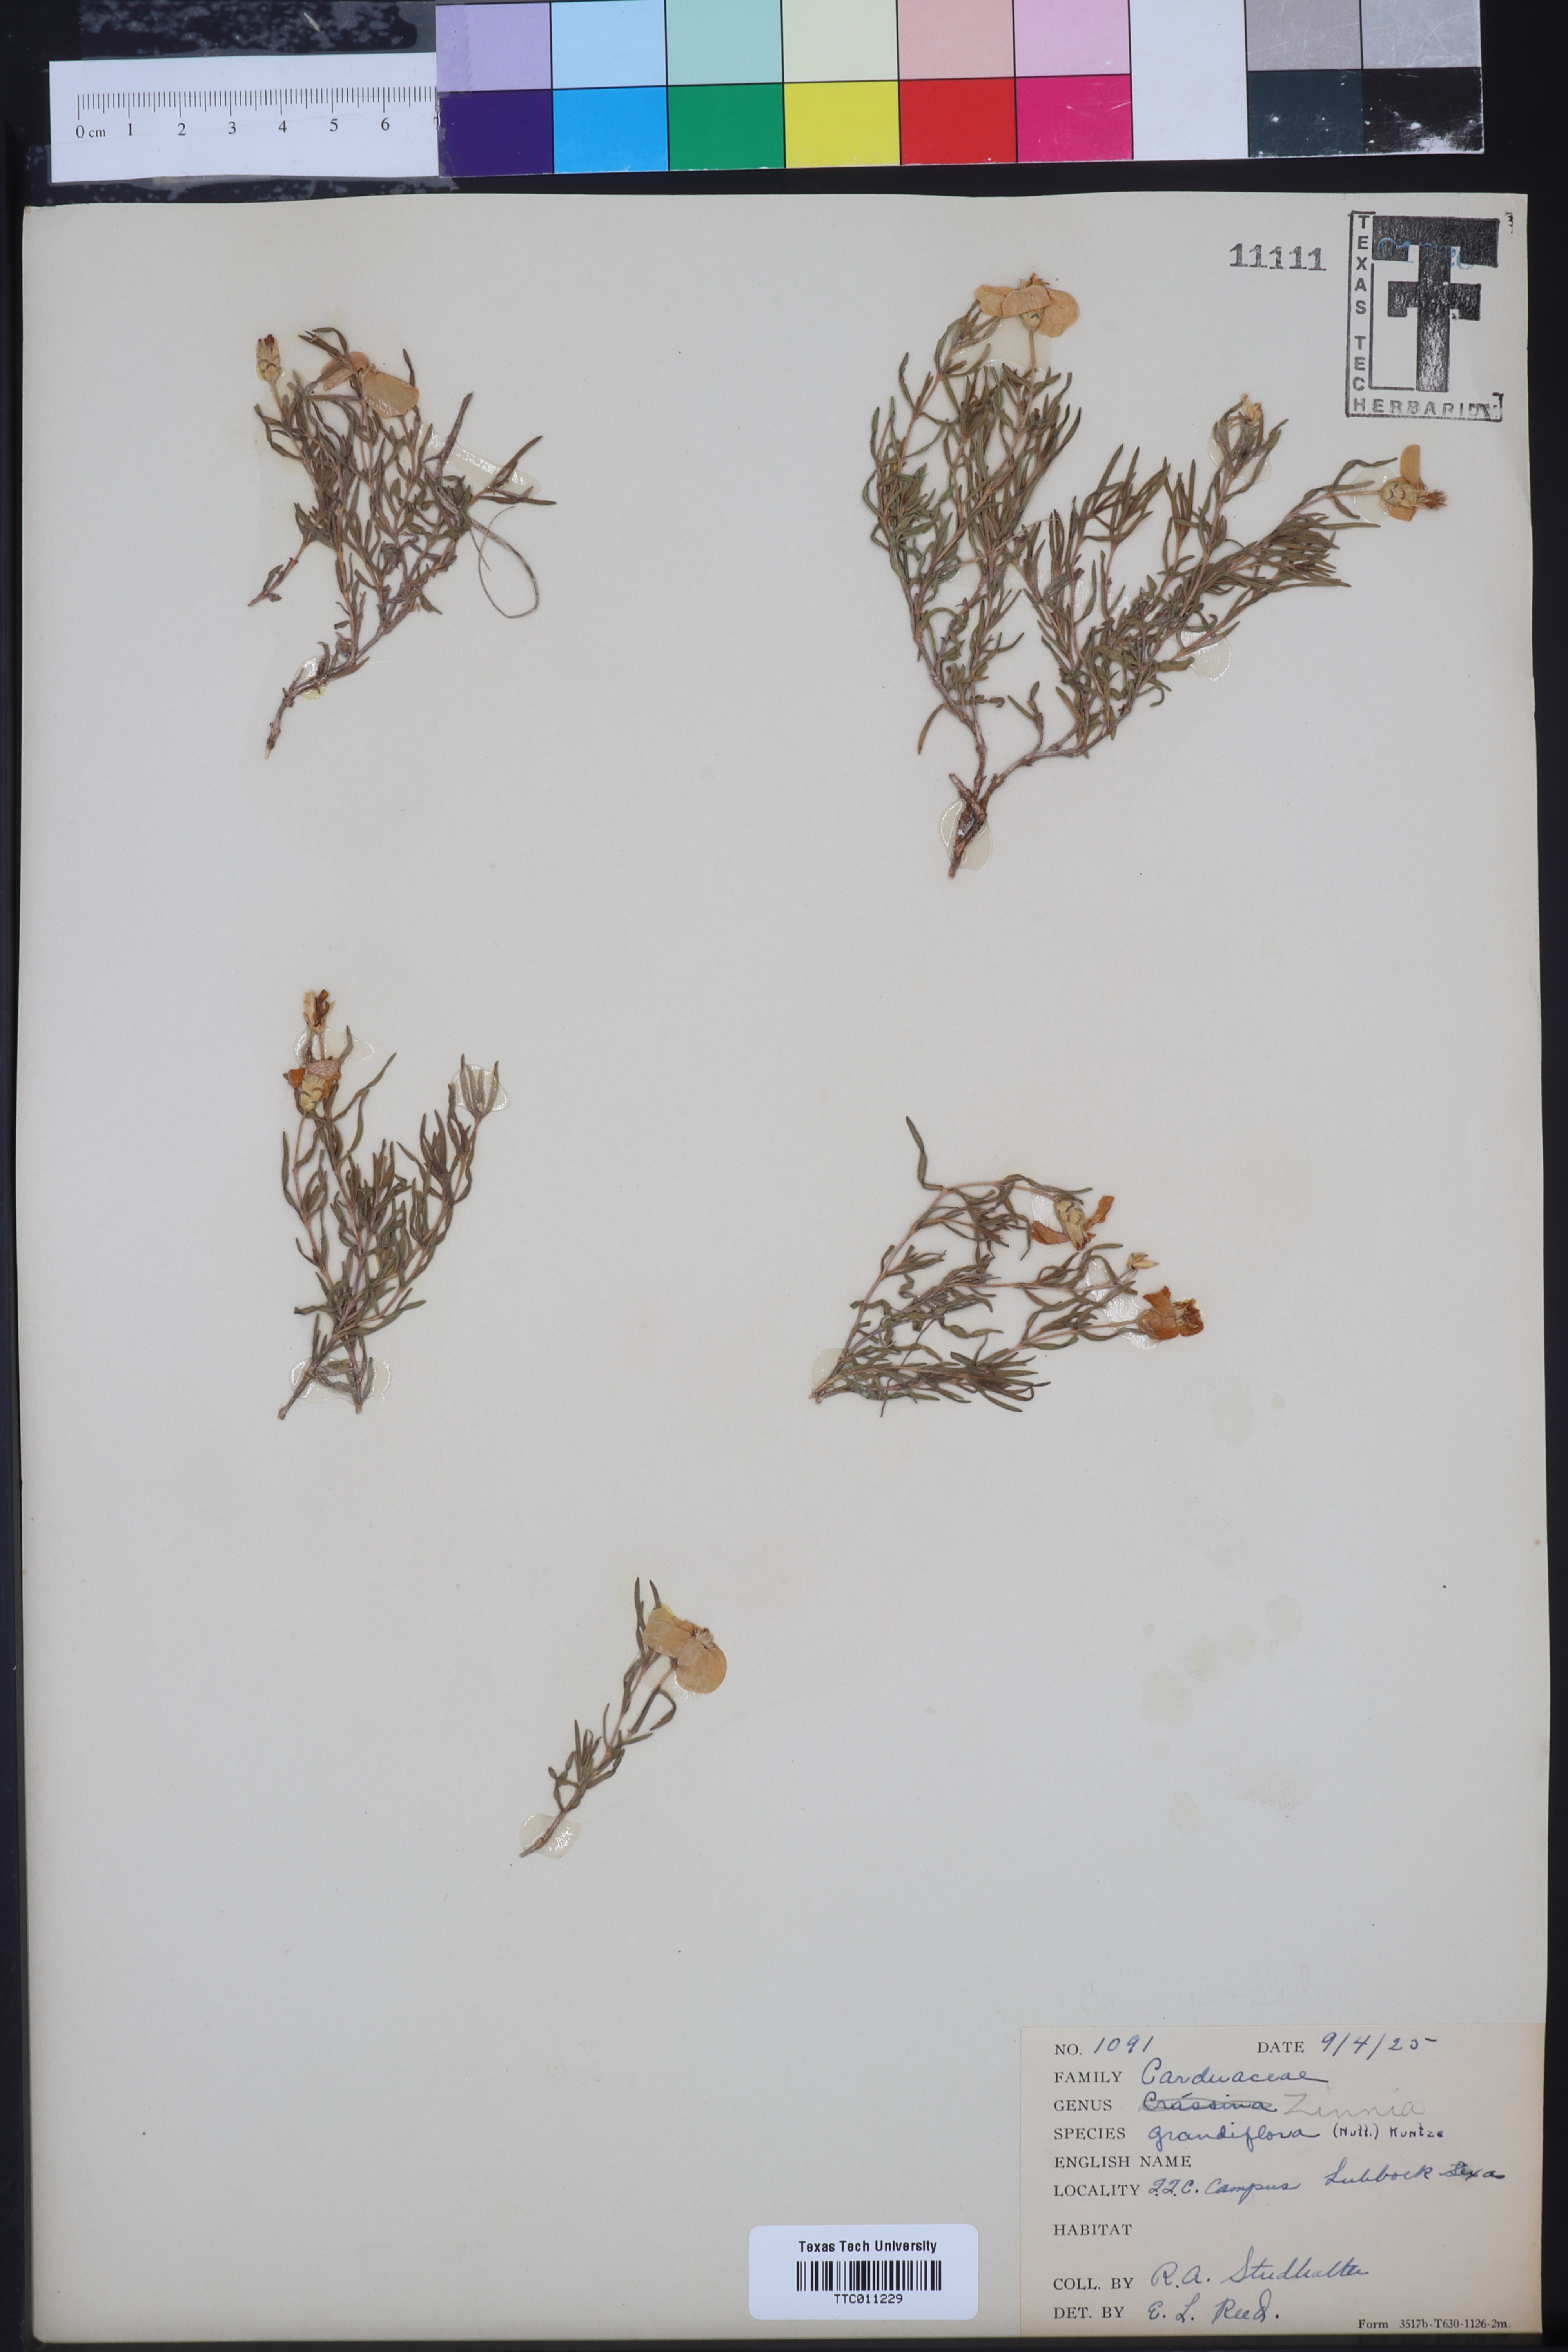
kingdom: Plantae
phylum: Tracheophyta
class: Magnoliopsida
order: Asterales
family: Asteraceae
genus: Zinnia
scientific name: Zinnia grandiflora
